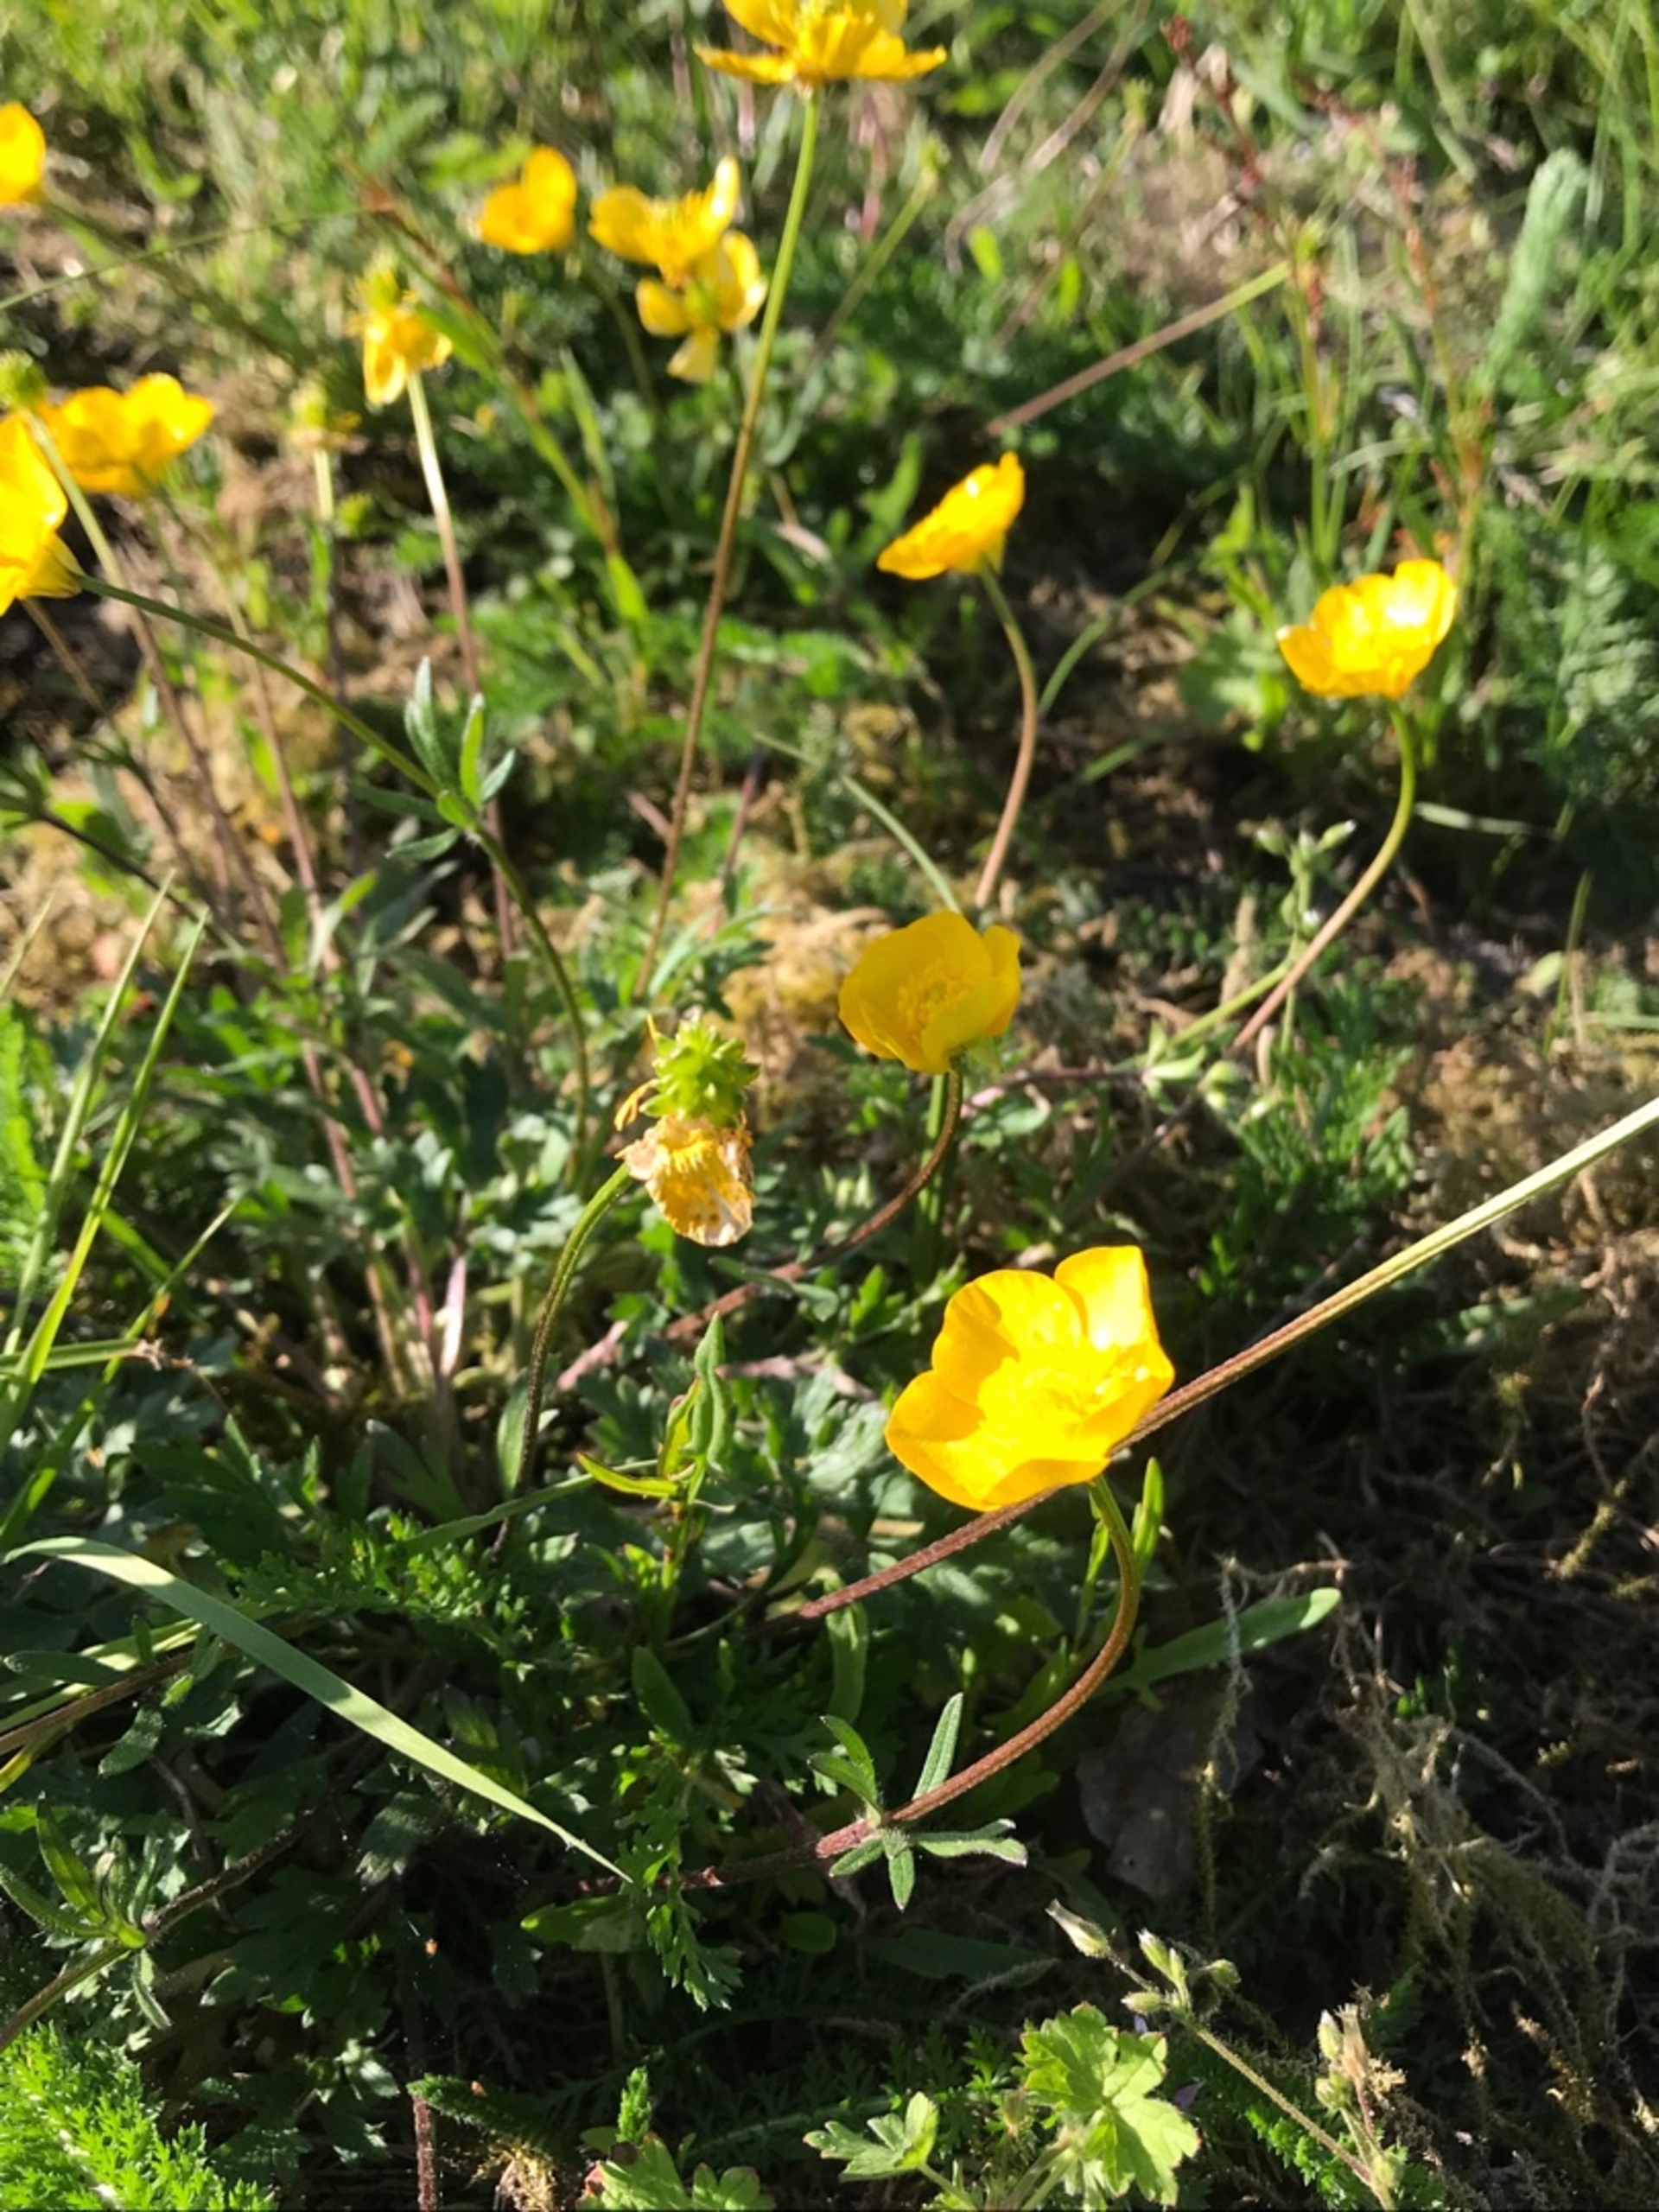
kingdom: Plantae
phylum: Tracheophyta
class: Magnoliopsida
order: Ranunculales
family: Ranunculaceae
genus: Ranunculus
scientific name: Ranunculus bulbosus
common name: Knold-ranunkel
